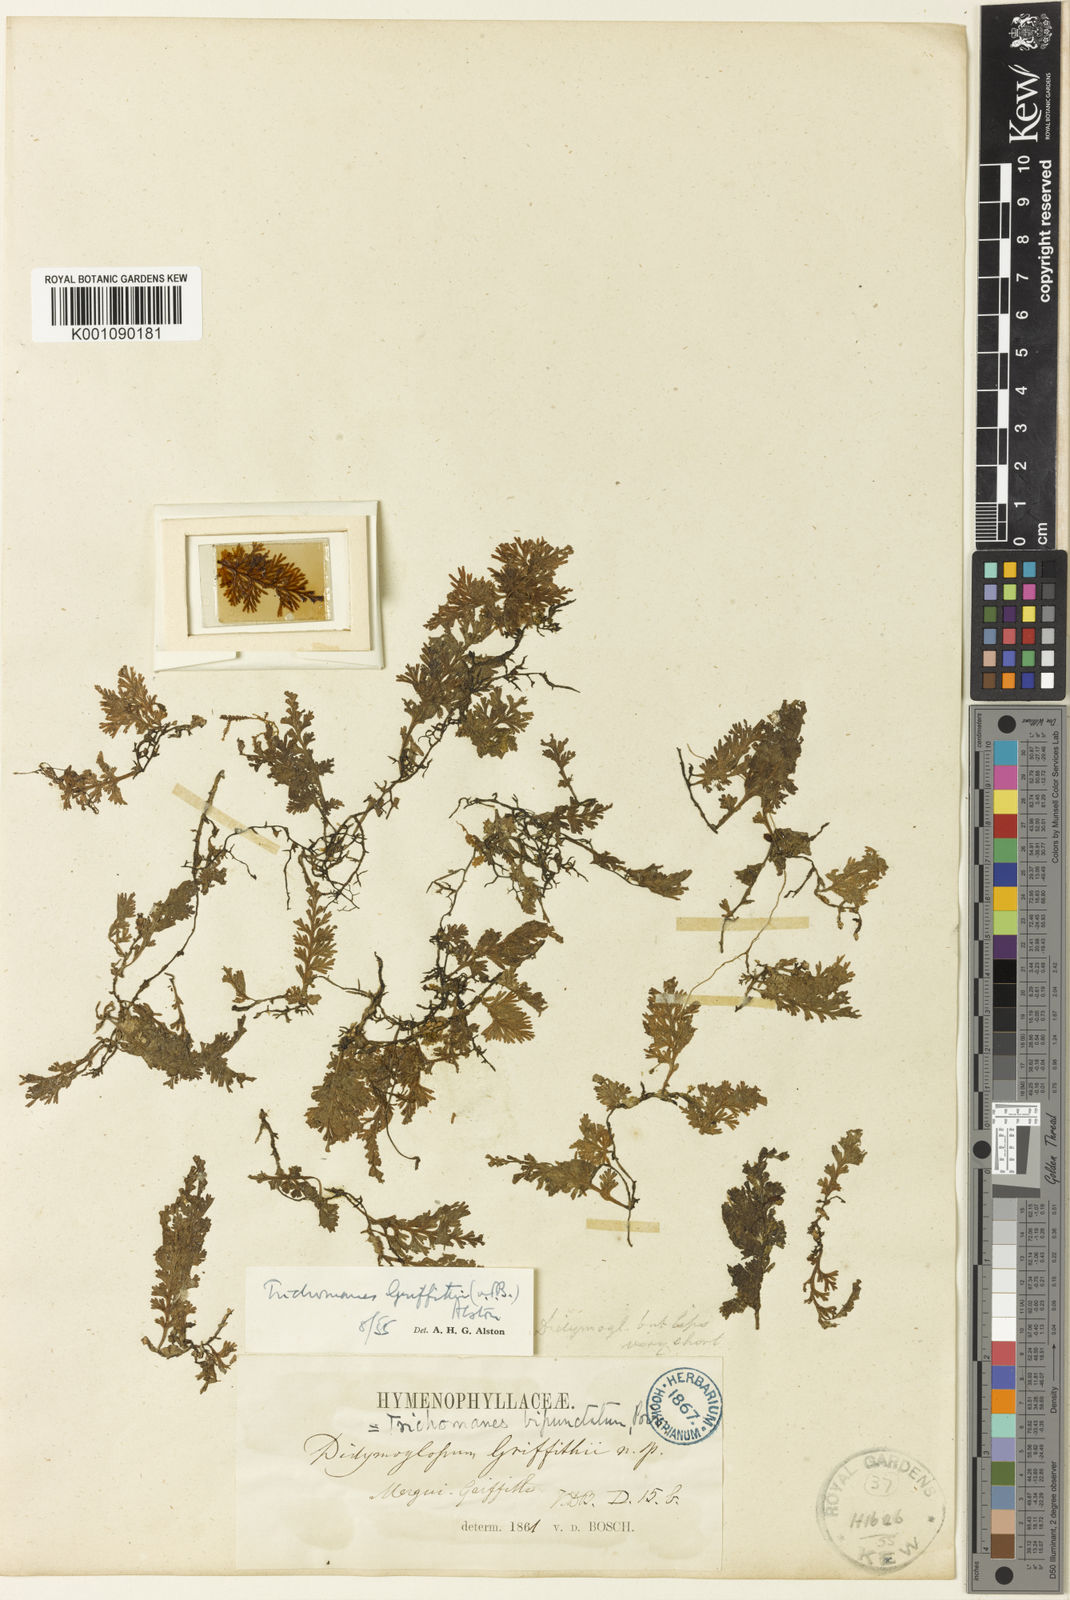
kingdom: Plantae
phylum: Tracheophyta
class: Polypodiopsida
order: Hymenophyllales
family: Hymenophyllaceae
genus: Trichomanes
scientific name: Trichomanes
